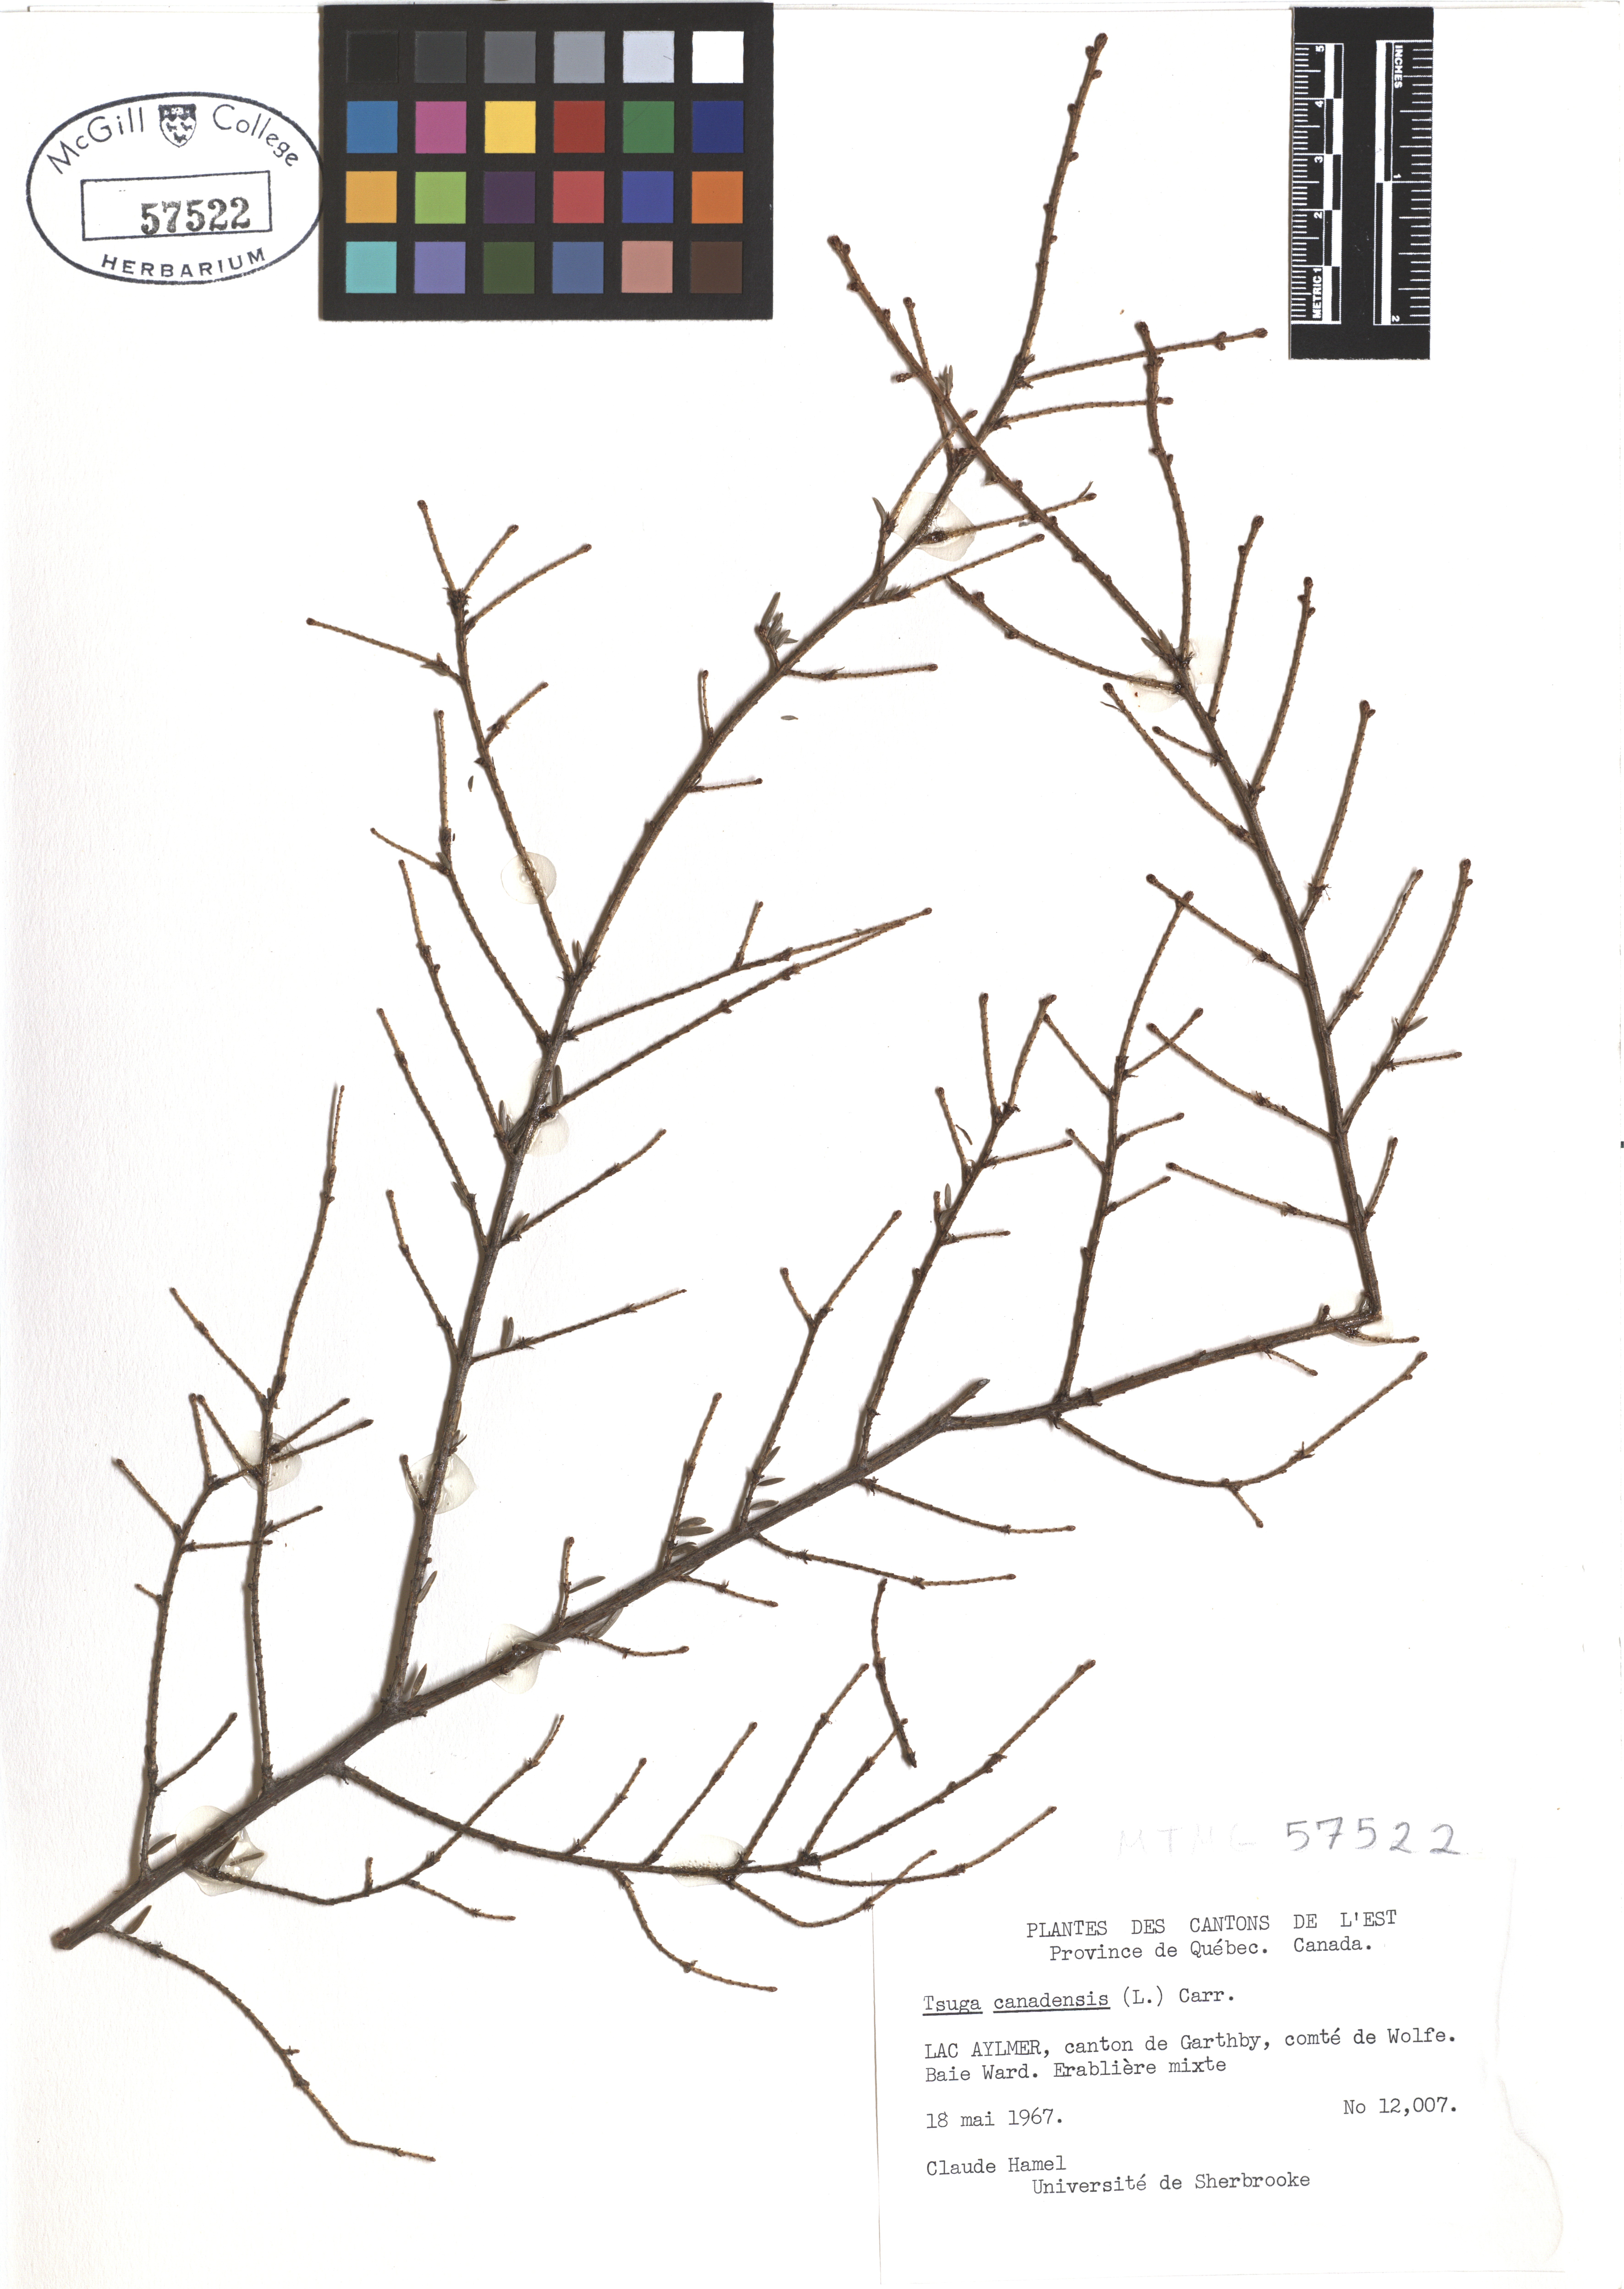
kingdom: Plantae
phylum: Tracheophyta
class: Pinopsida
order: Pinales
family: Pinaceae
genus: Tsuga
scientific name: Tsuga canadensis
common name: Eastern hemlock
